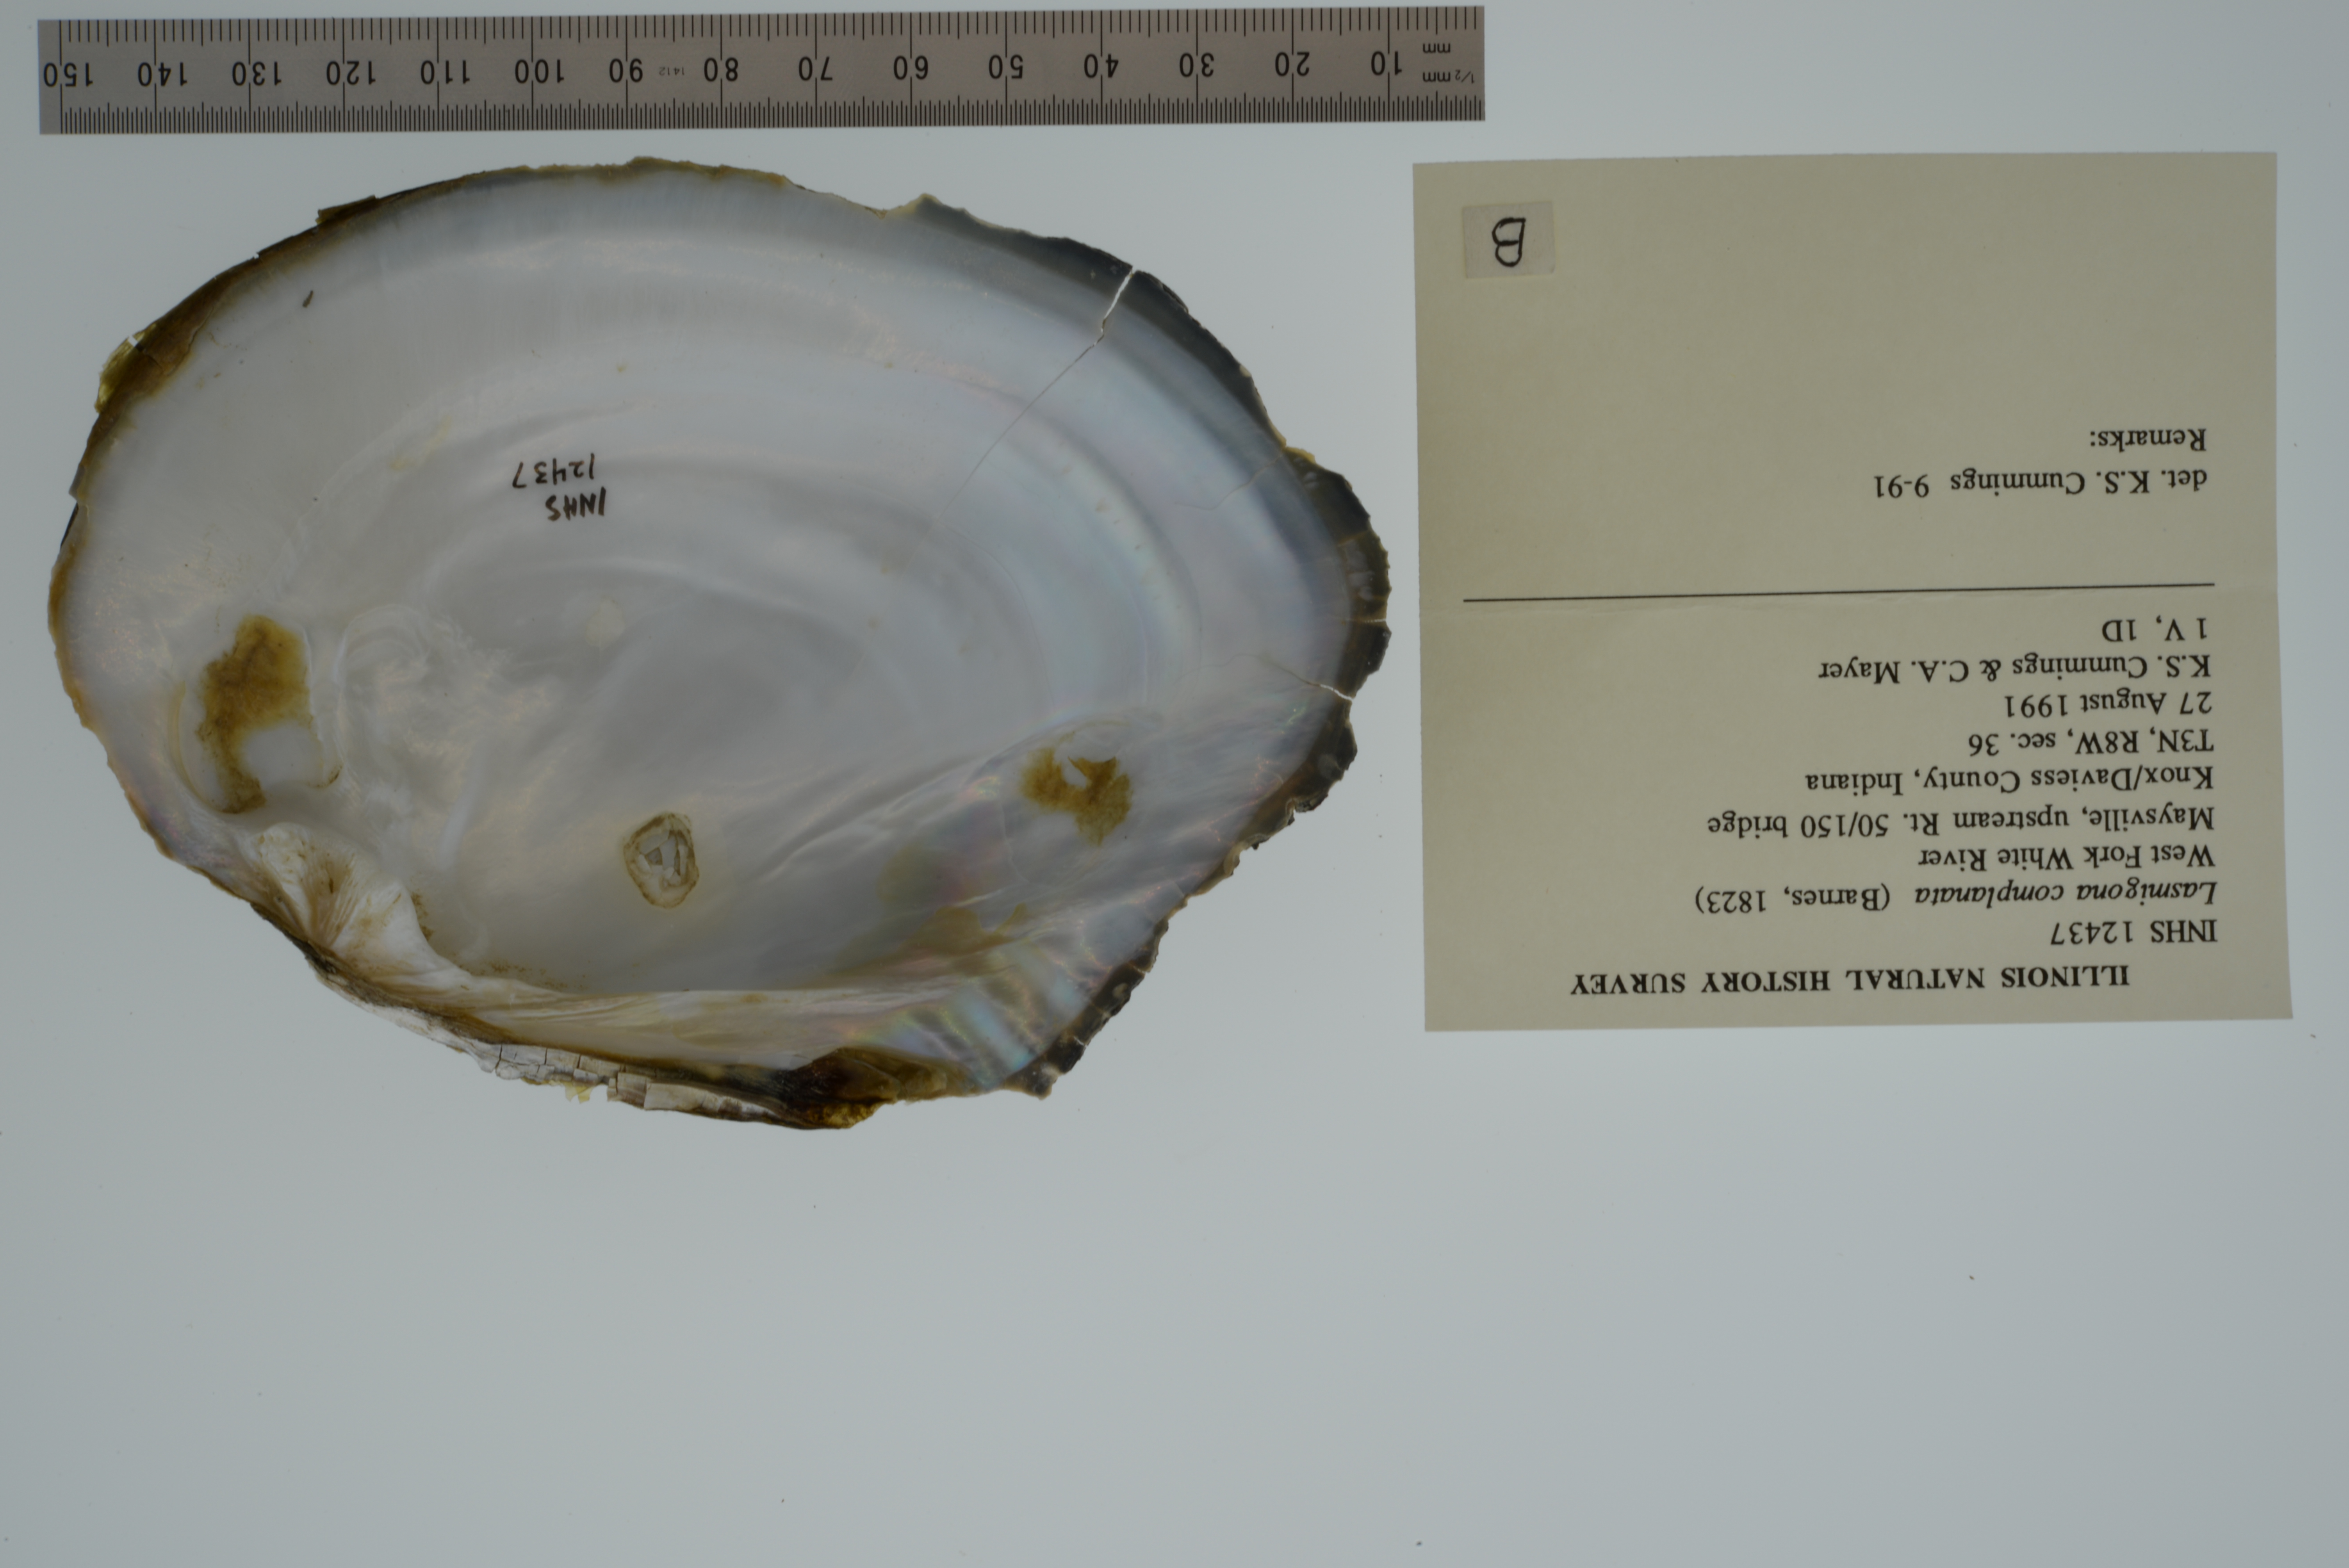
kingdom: Animalia
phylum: Mollusca
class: Bivalvia
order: Unionida
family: Unionidae
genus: Lasmigona
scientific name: Lasmigona complanata
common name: White heelsplitter
